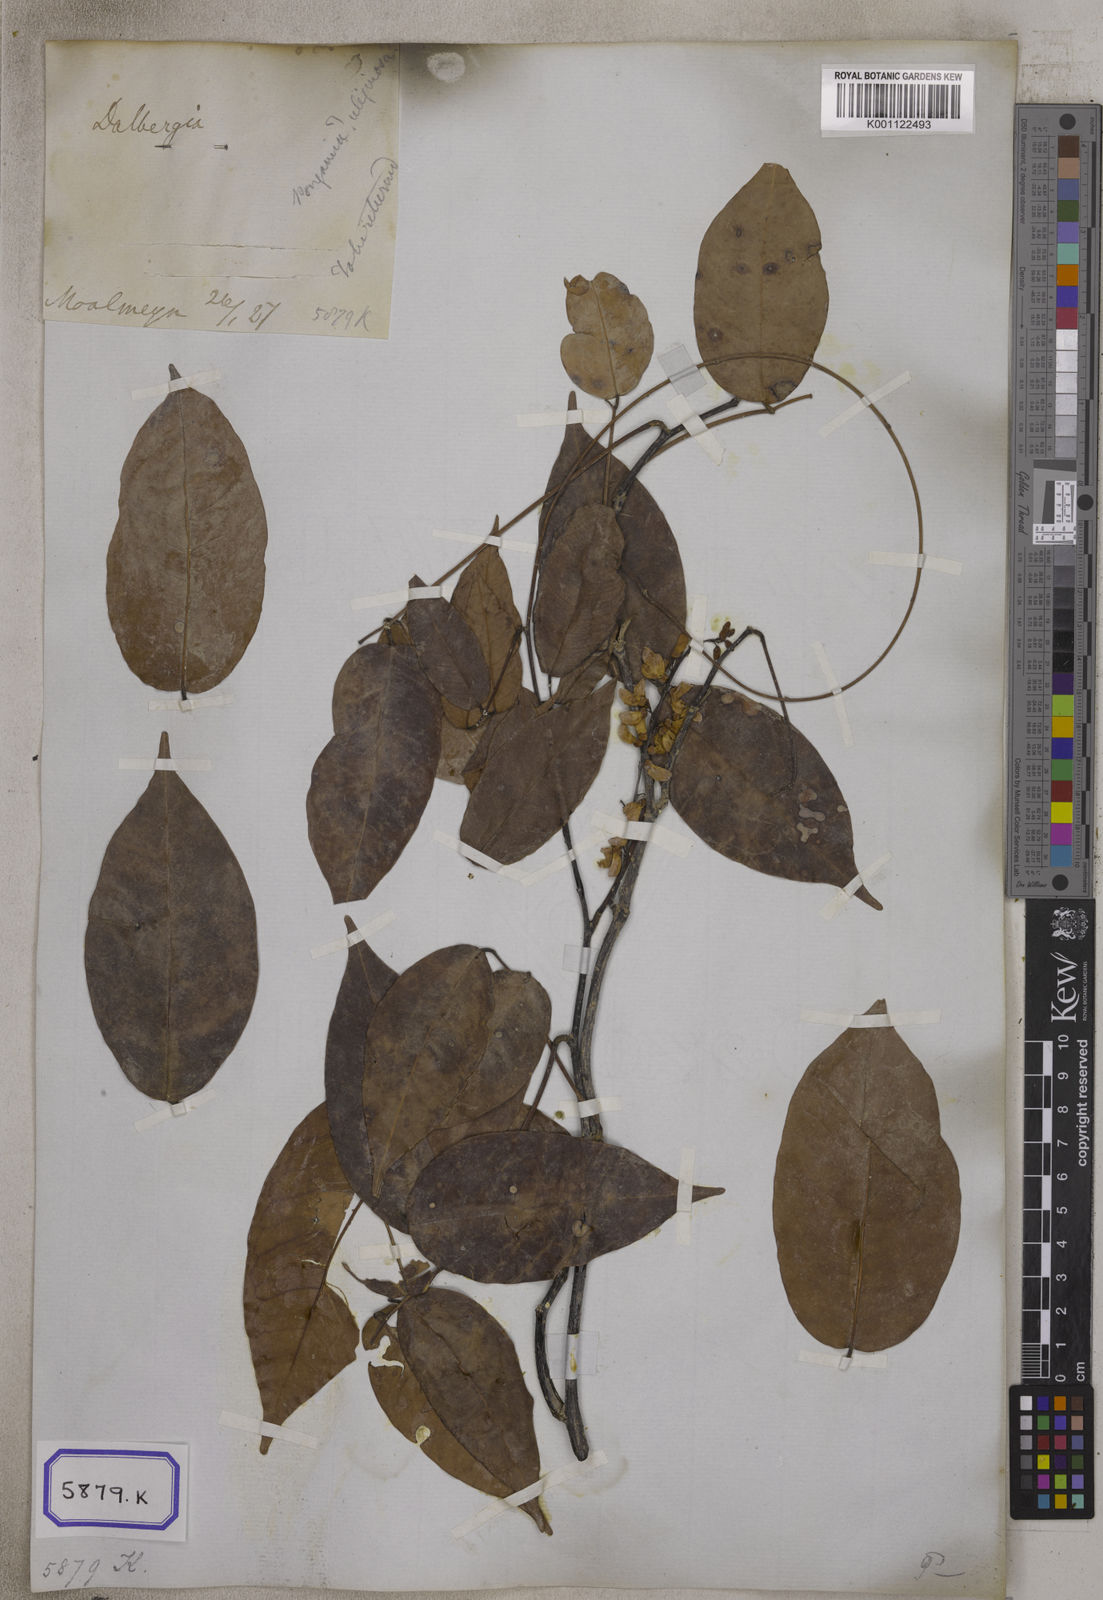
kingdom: Plantae
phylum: Tracheophyta
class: Magnoliopsida
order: Fabales
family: Fabaceae
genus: Derris
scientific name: Derris trifoliata
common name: Three-leaf derris
